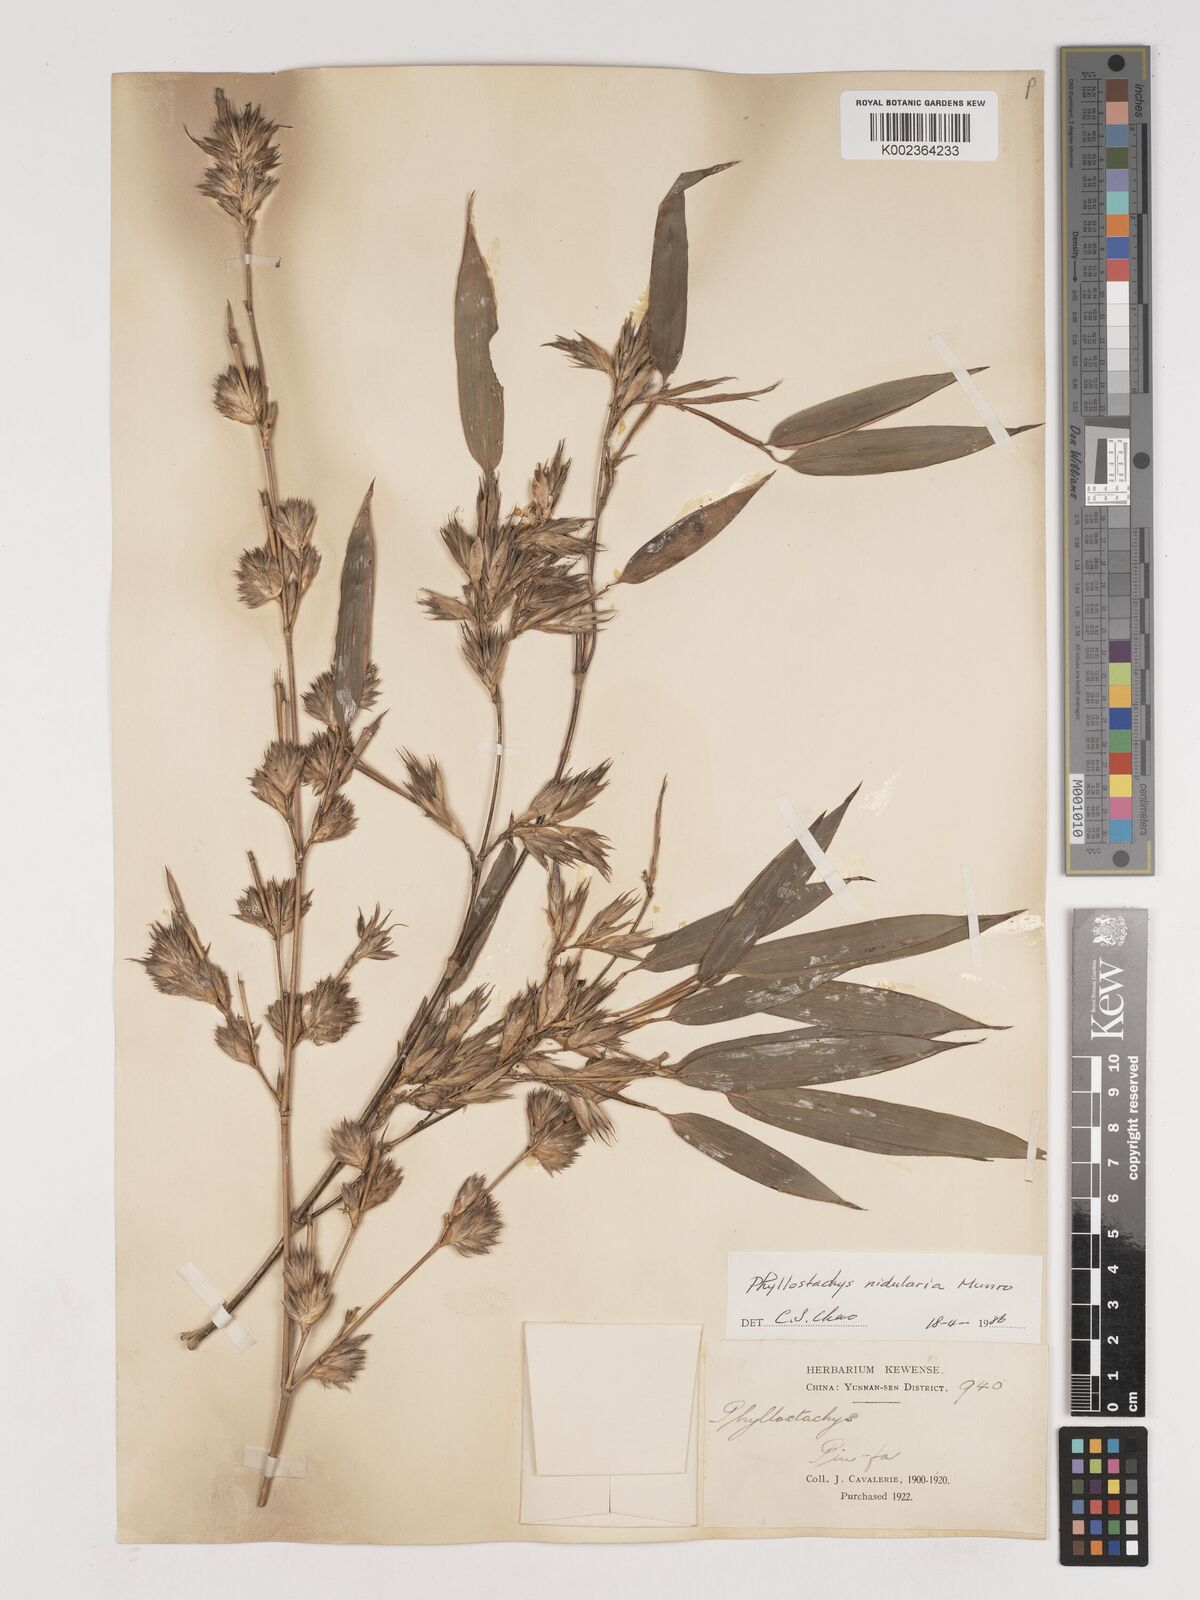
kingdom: Plantae
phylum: Tracheophyta
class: Liliopsida
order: Poales
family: Poaceae
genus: Phyllostachys
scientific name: Phyllostachys nidularia
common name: Broom bamboo
